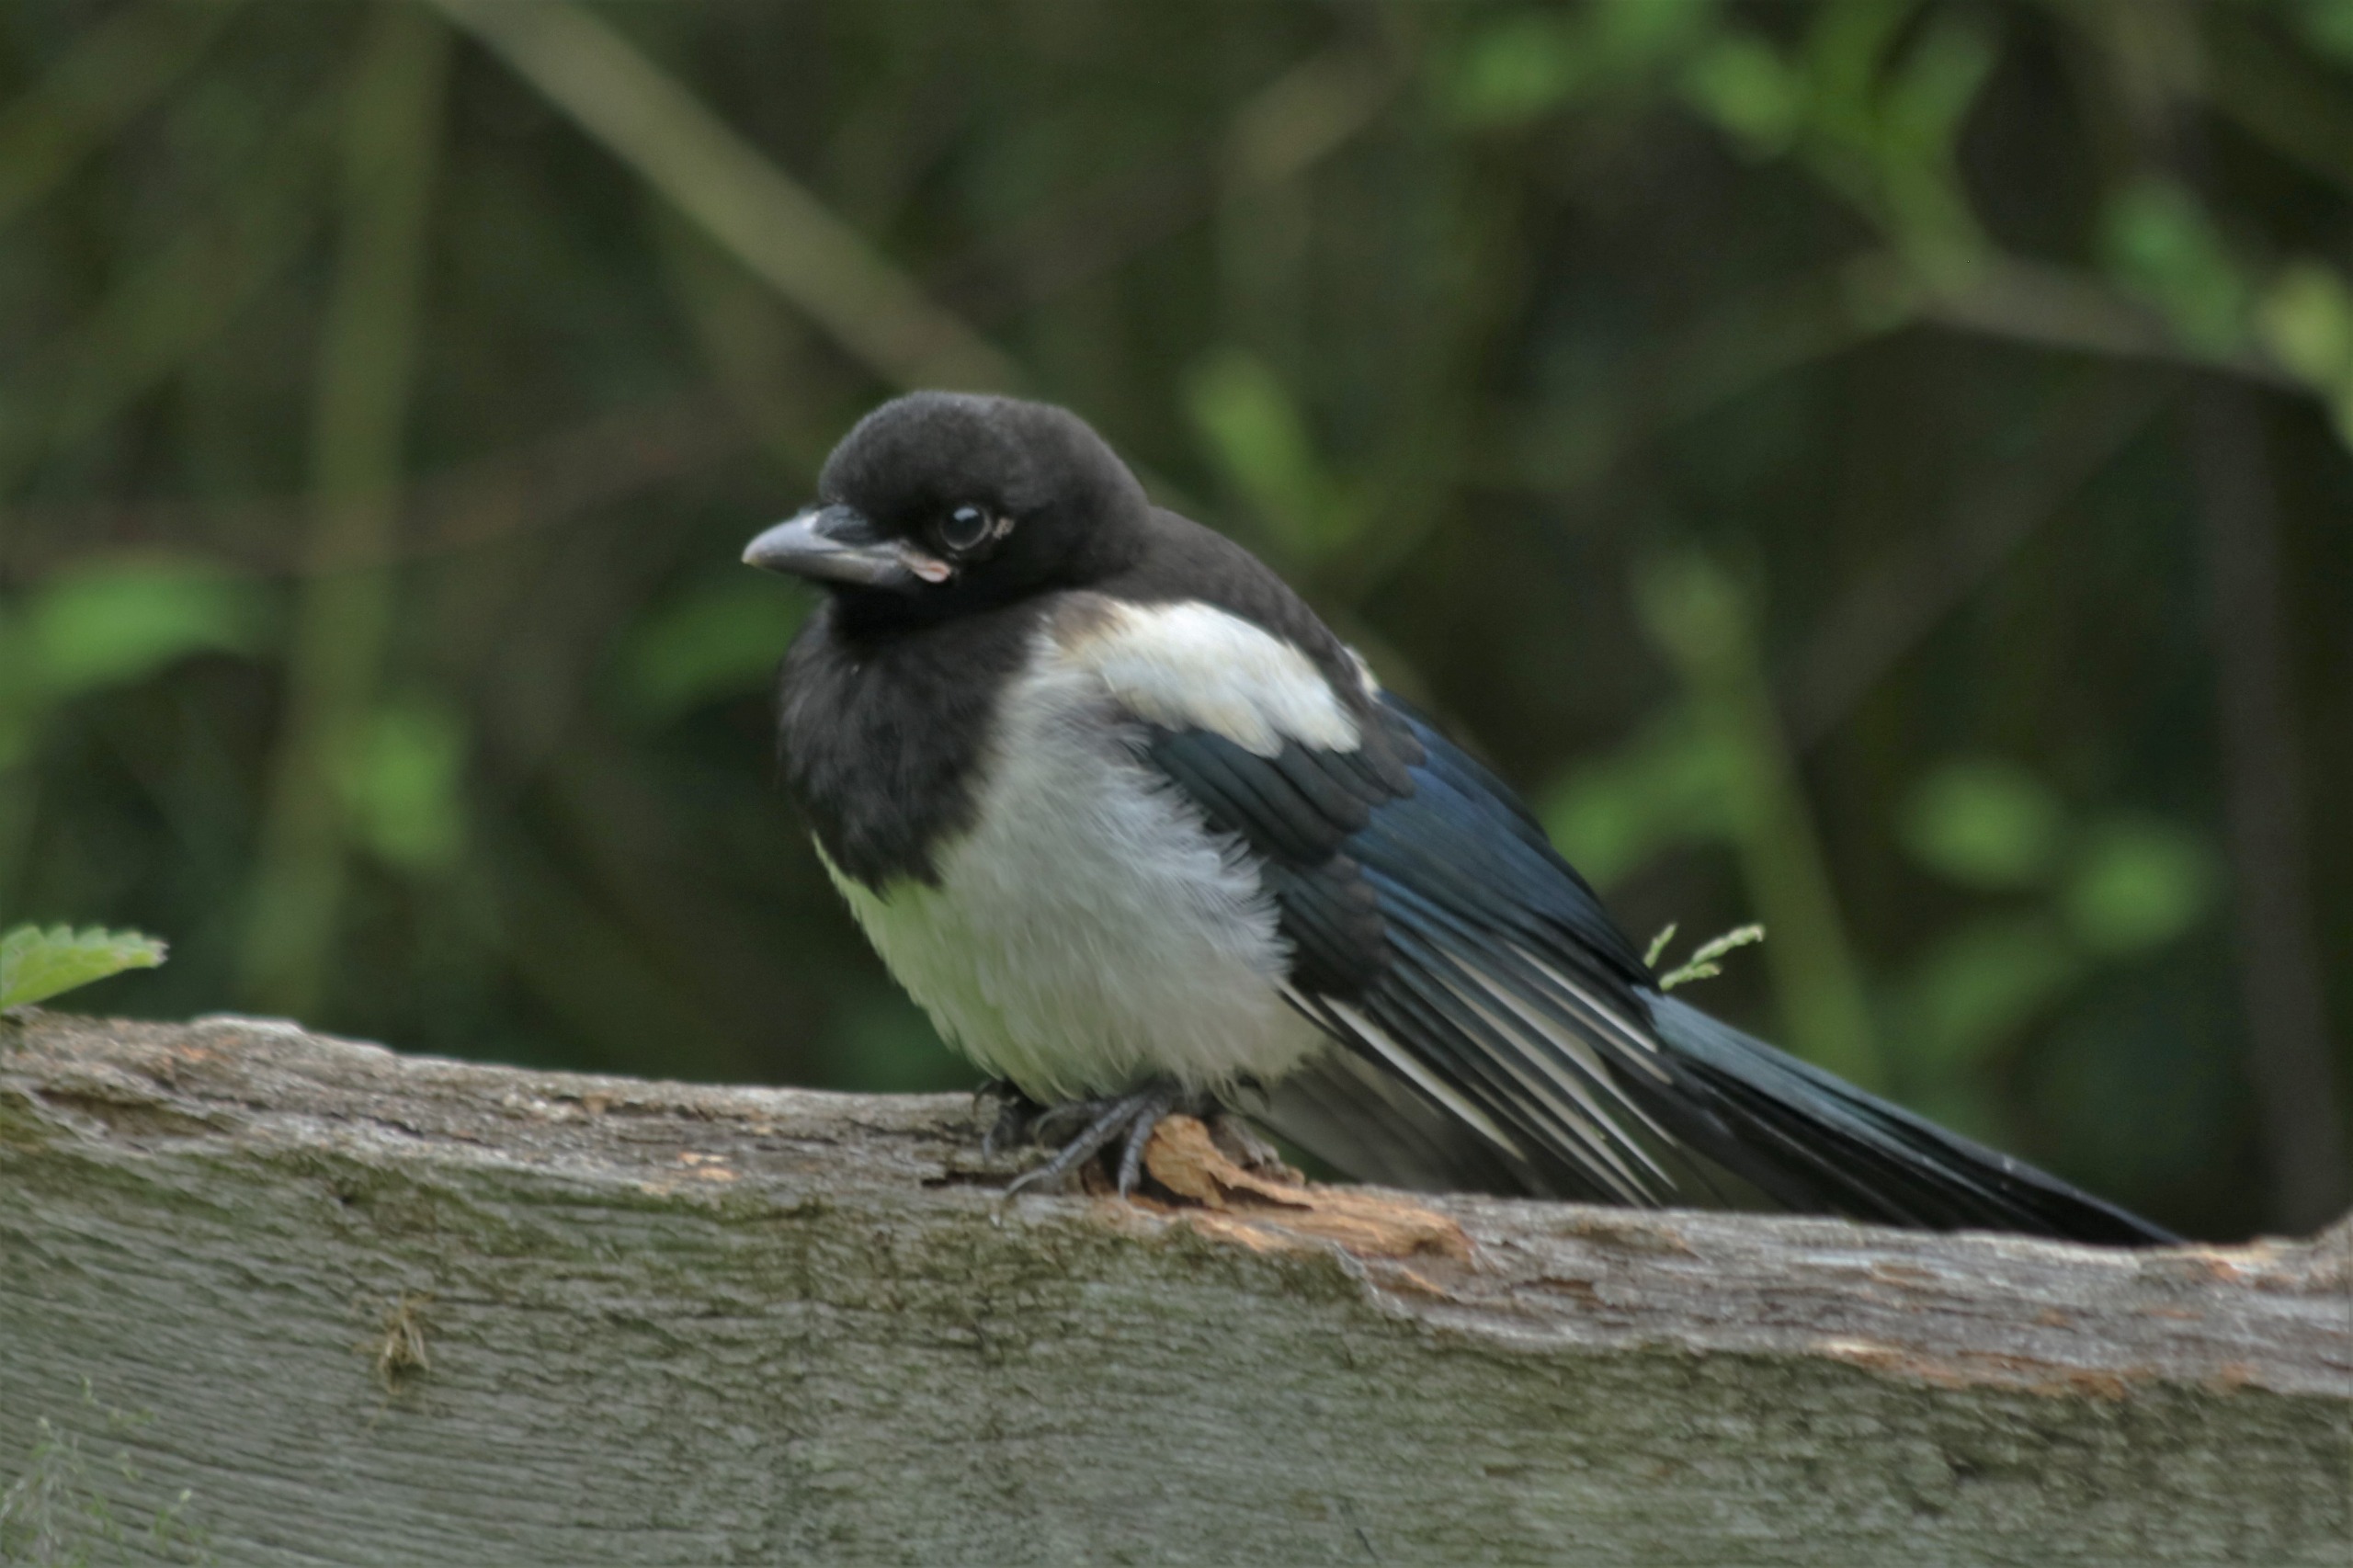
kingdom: Animalia
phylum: Chordata
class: Aves
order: Passeriformes
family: Corvidae
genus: Pica
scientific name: Pica pica
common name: Husskade
